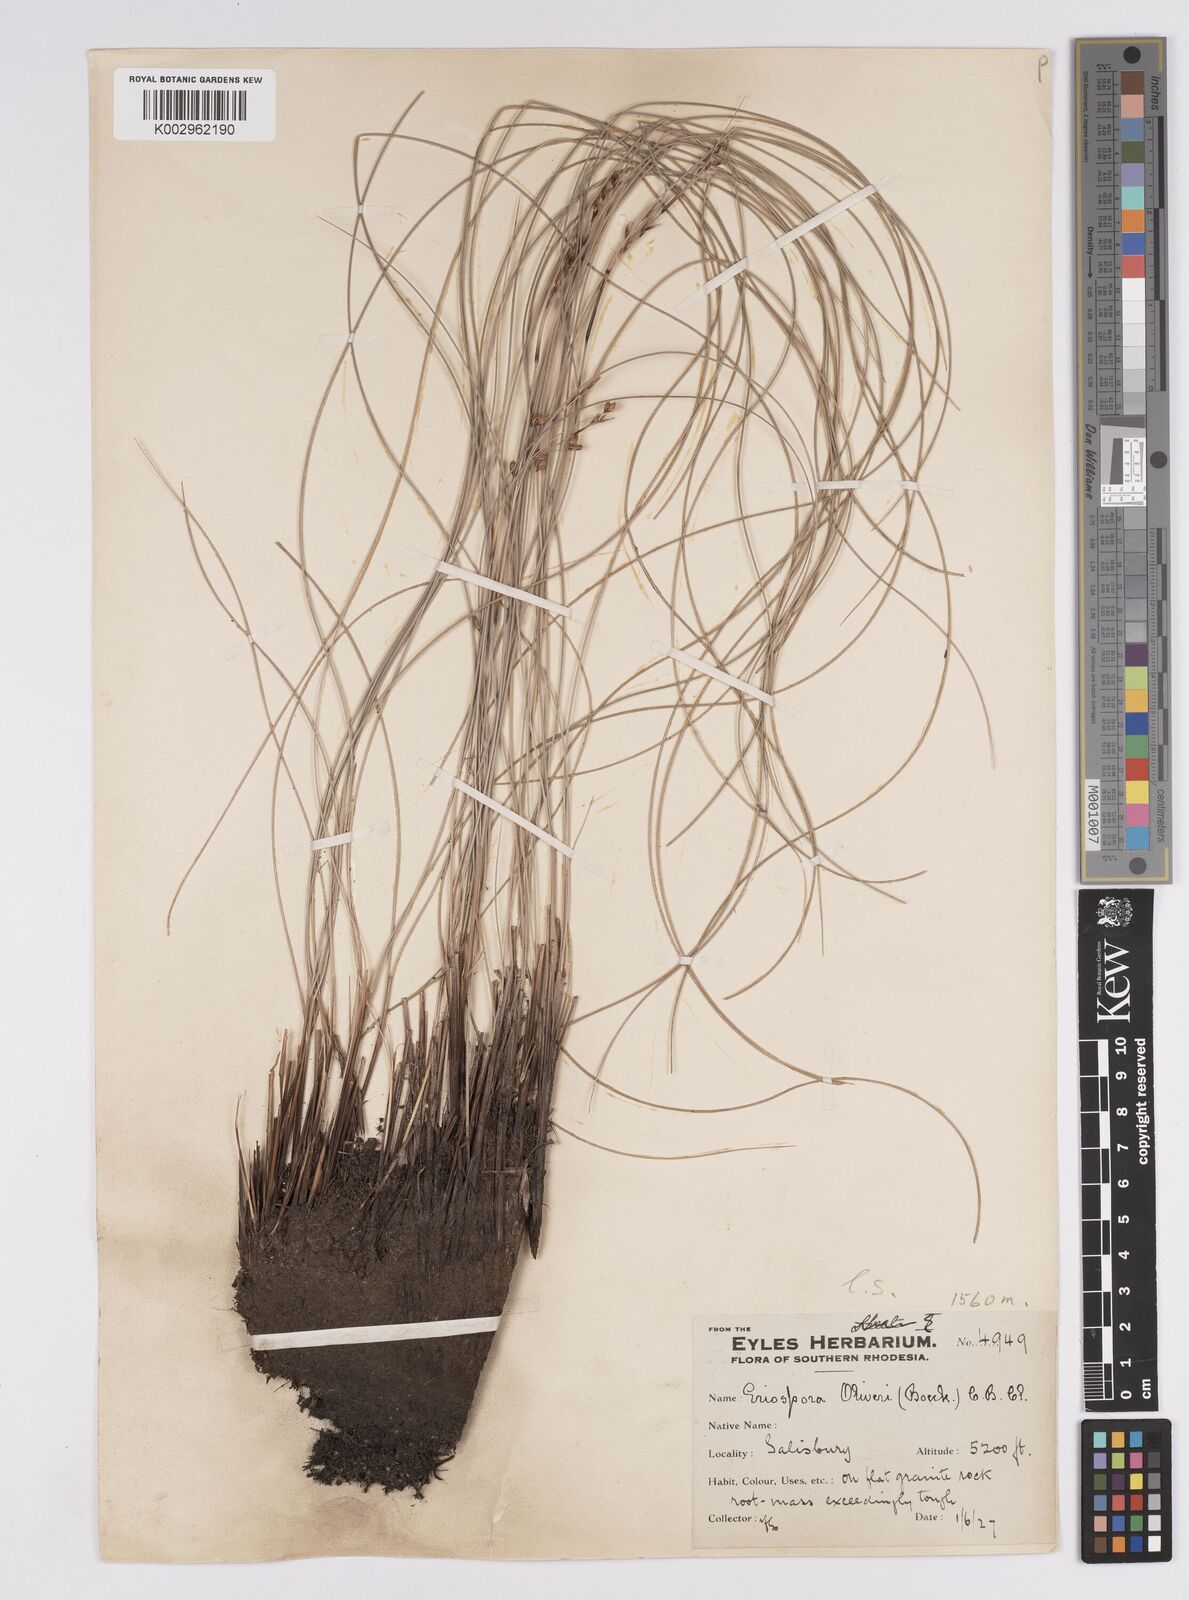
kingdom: Plantae
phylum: Tracheophyta
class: Liliopsida
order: Poales
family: Cyperaceae
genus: Coleochloa
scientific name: Coleochloa setifera
